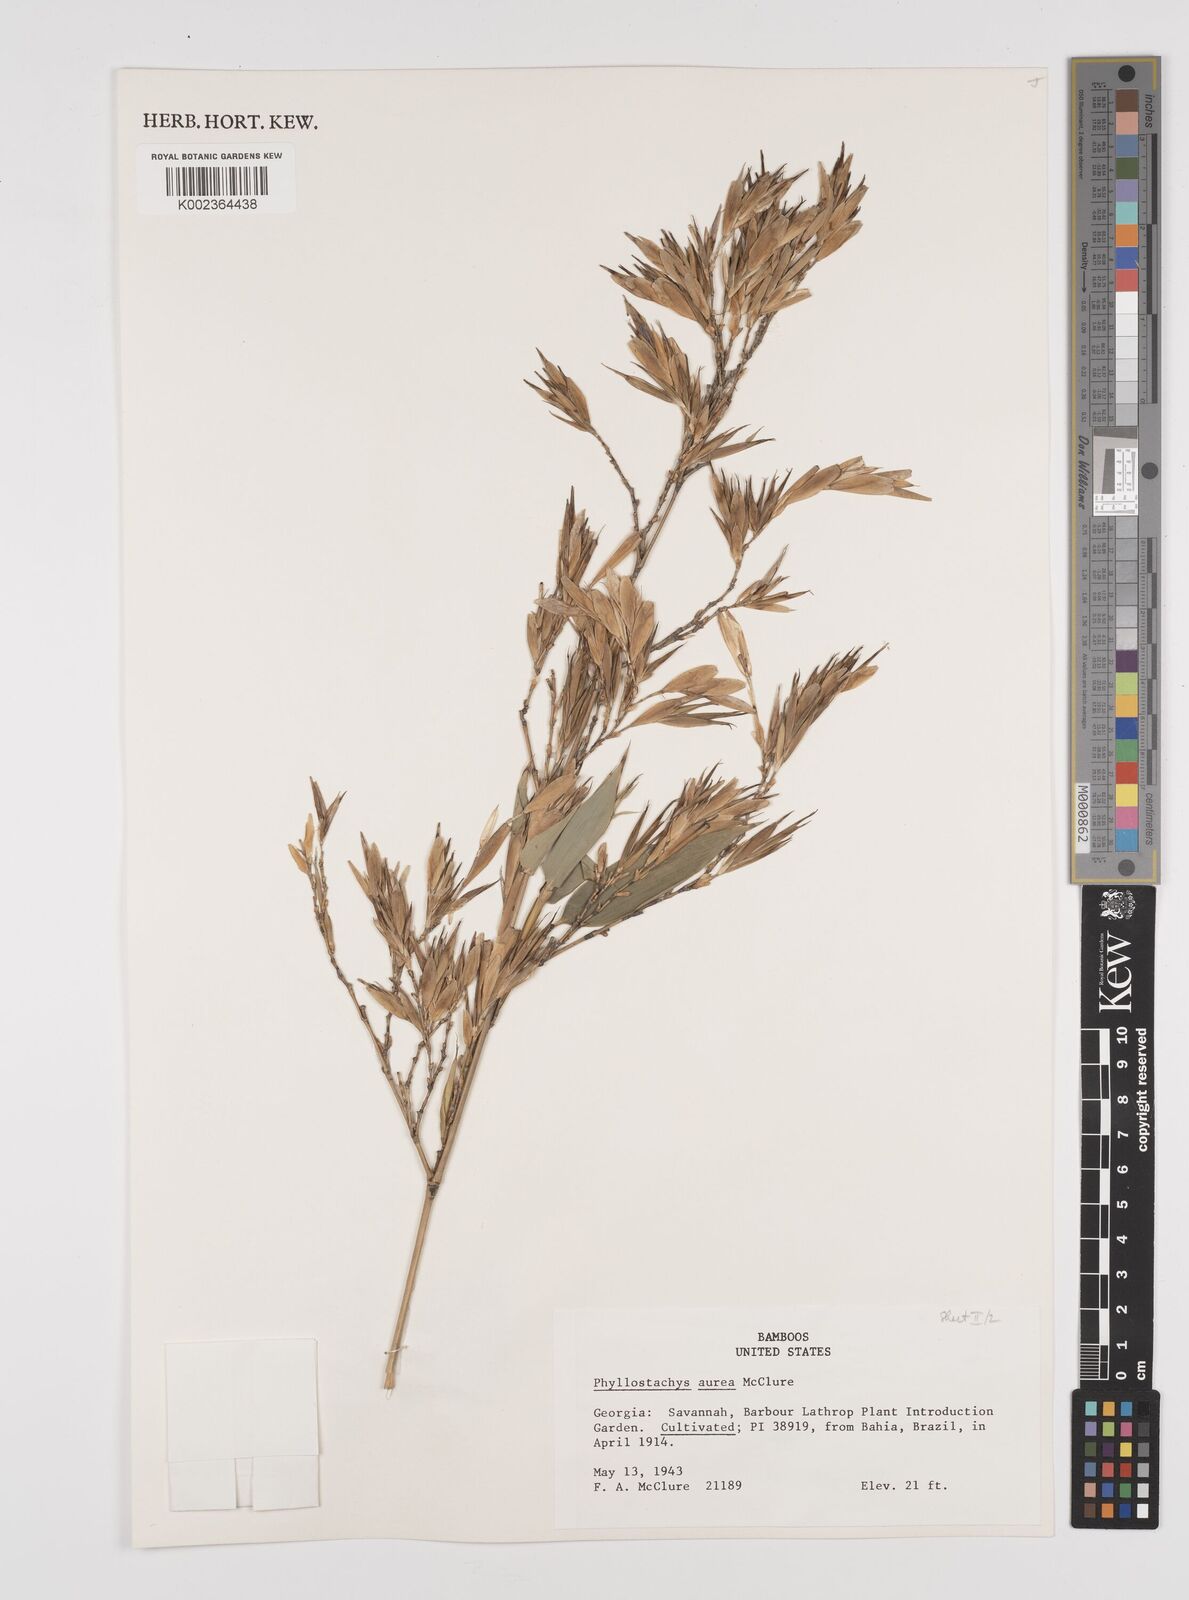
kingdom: Plantae
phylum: Tracheophyta
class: Liliopsida
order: Poales
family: Poaceae
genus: Phyllostachys
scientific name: Phyllostachys aurea
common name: Golden bamboo
